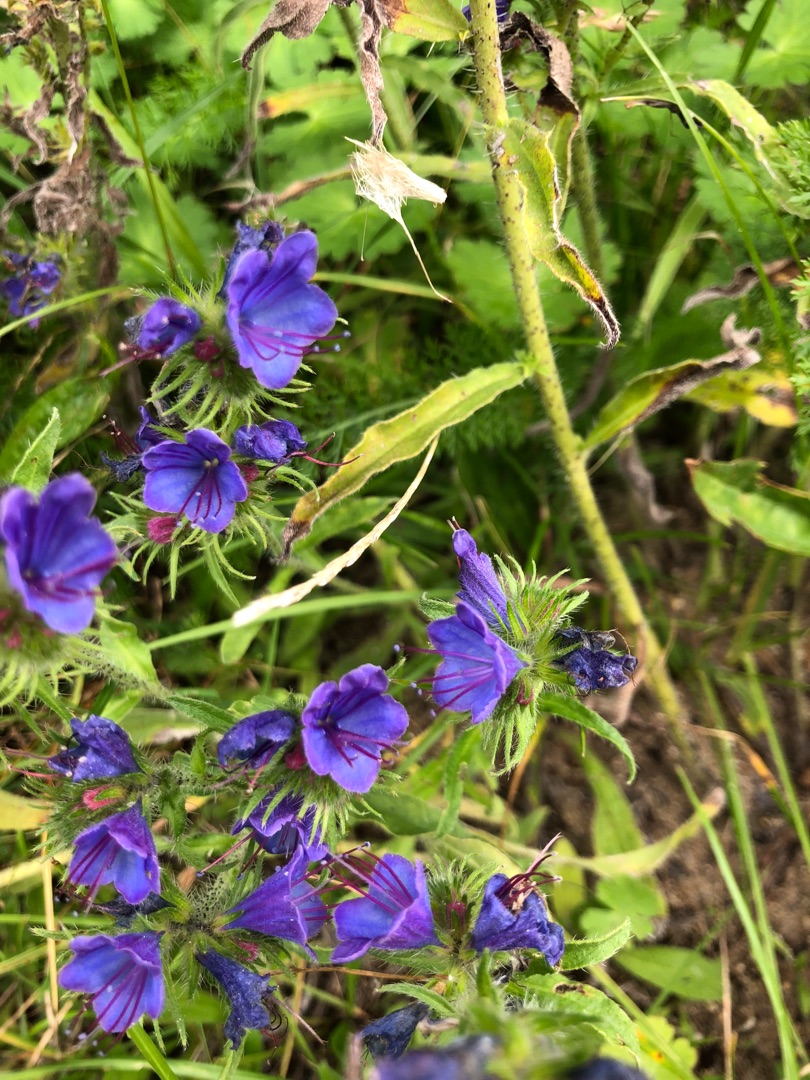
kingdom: Plantae
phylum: Tracheophyta
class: Magnoliopsida
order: Boraginales
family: Boraginaceae
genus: Echium
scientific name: Echium vulgare
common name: Slangehoved
